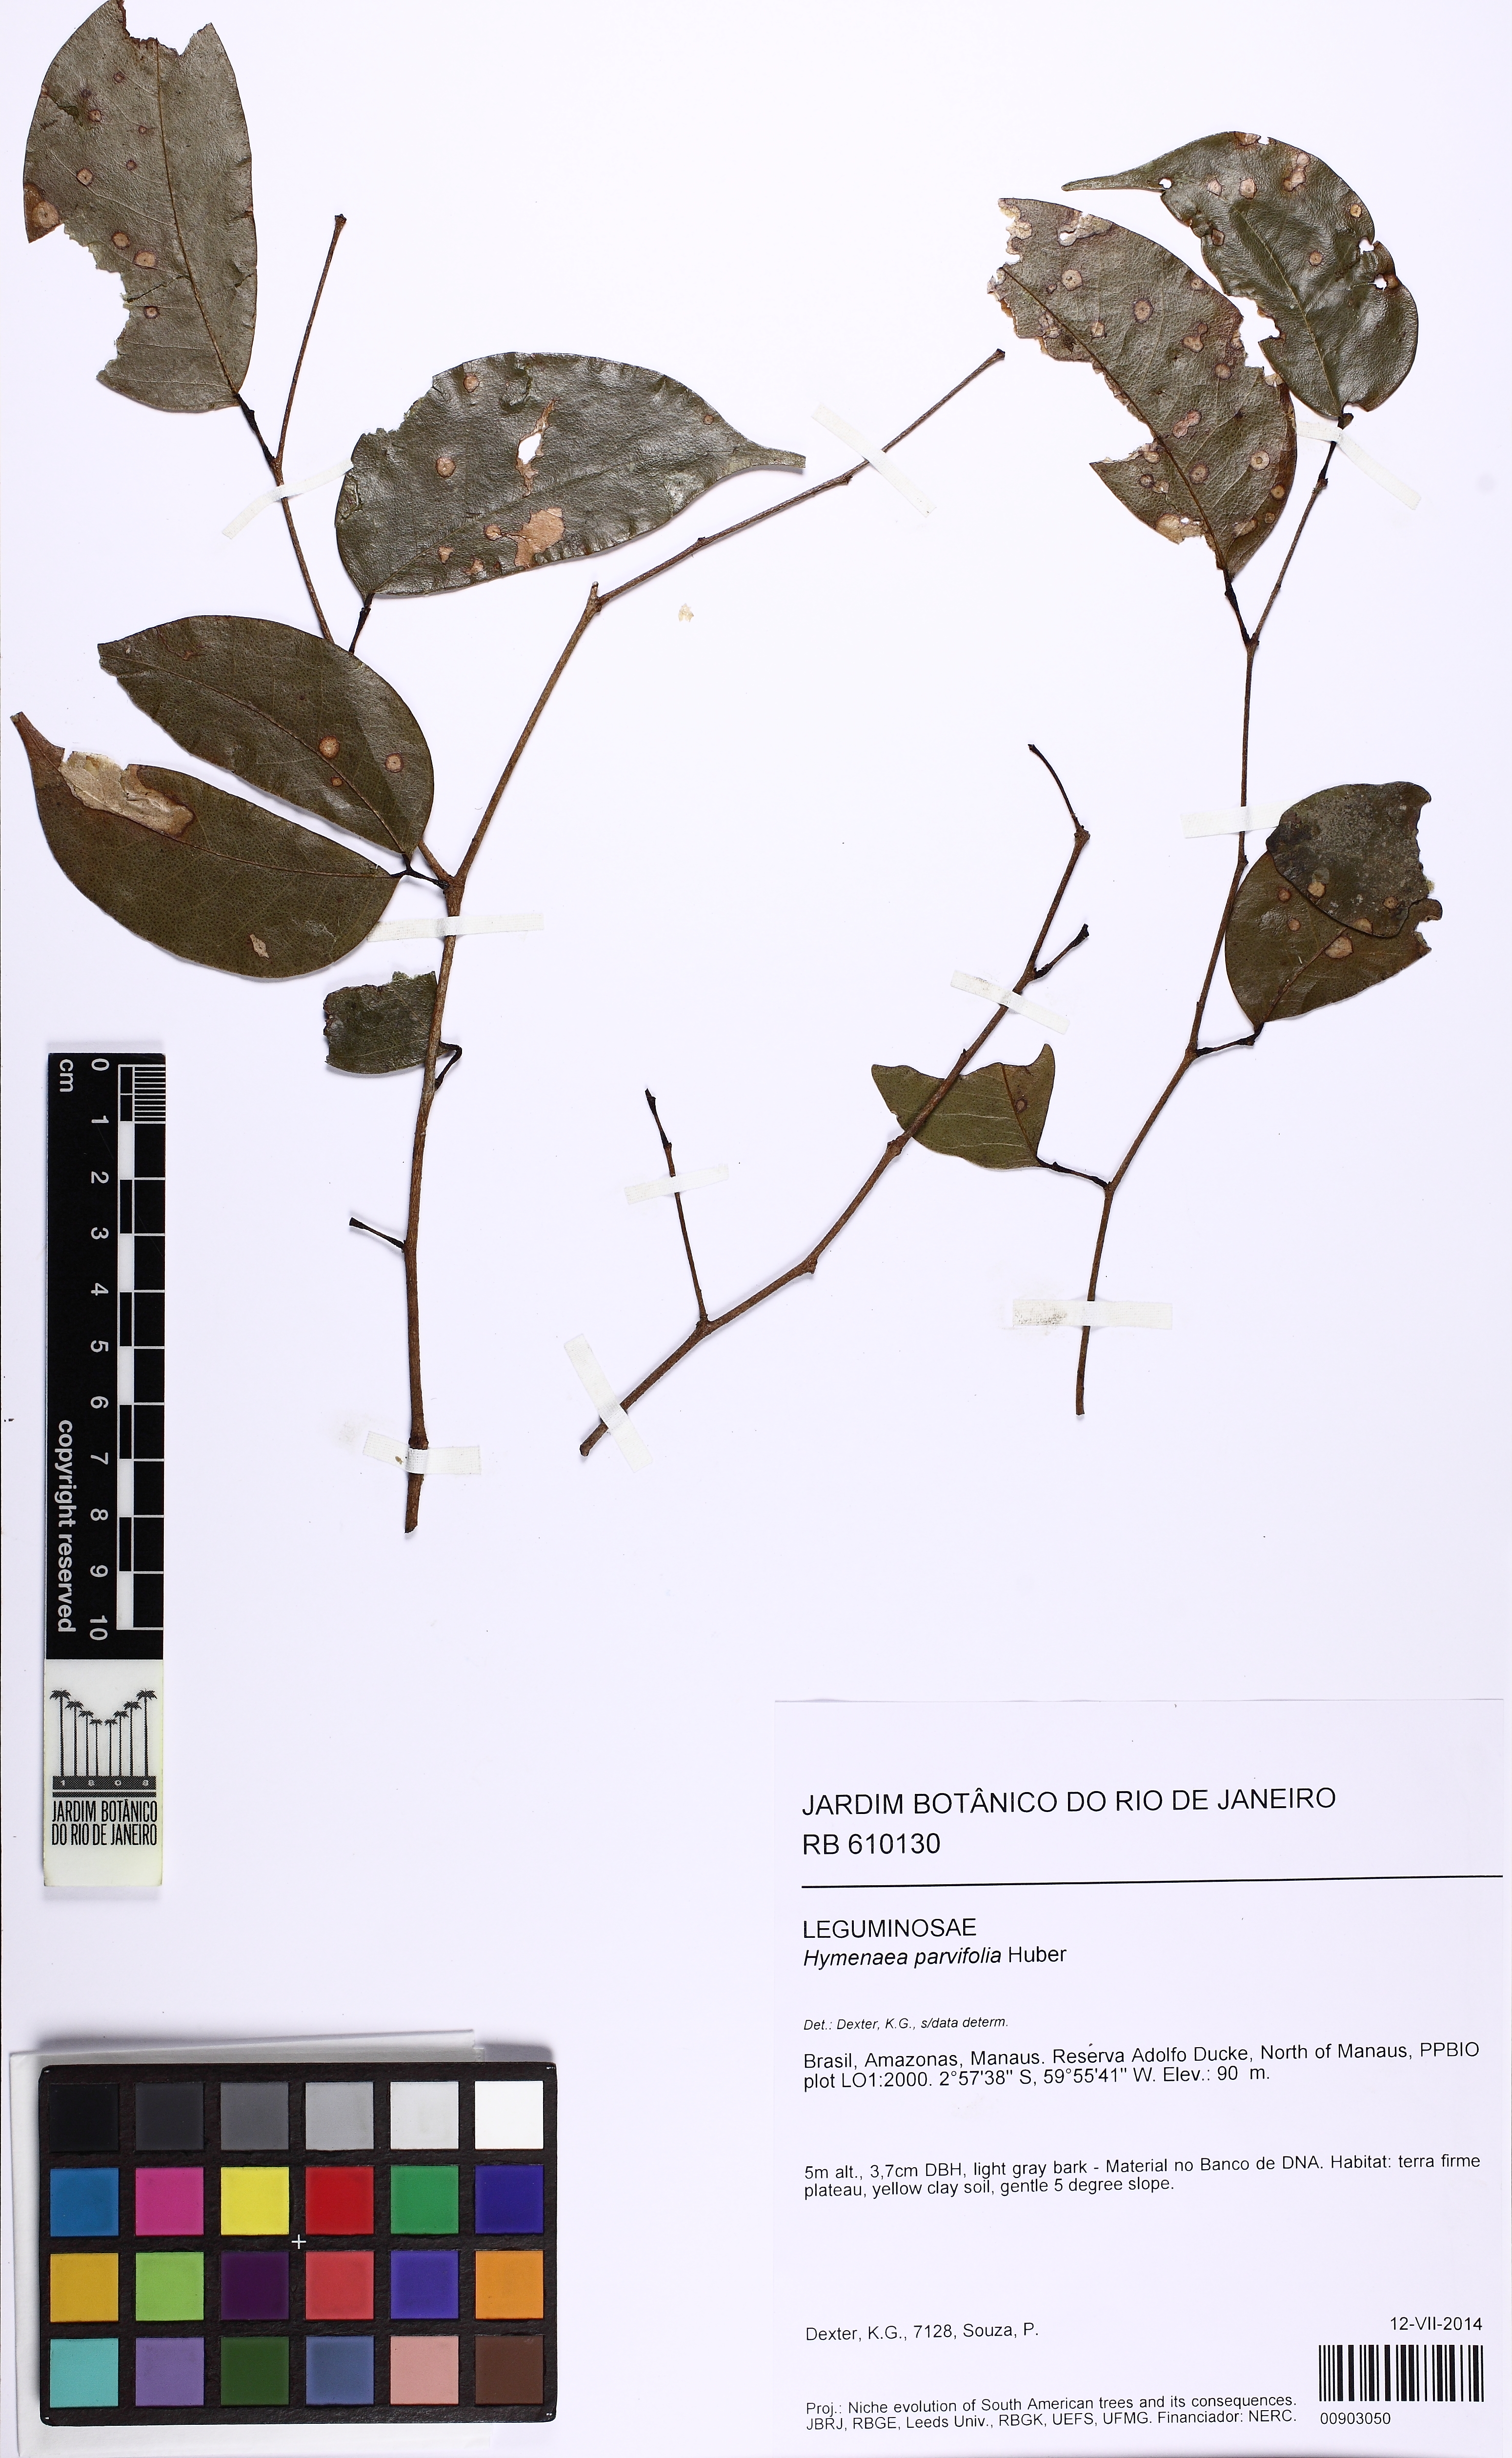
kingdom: Plantae
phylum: Tracheophyta
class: Magnoliopsida
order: Fabales
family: Fabaceae
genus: Hymenaea
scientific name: Hymenaea parvifolia
